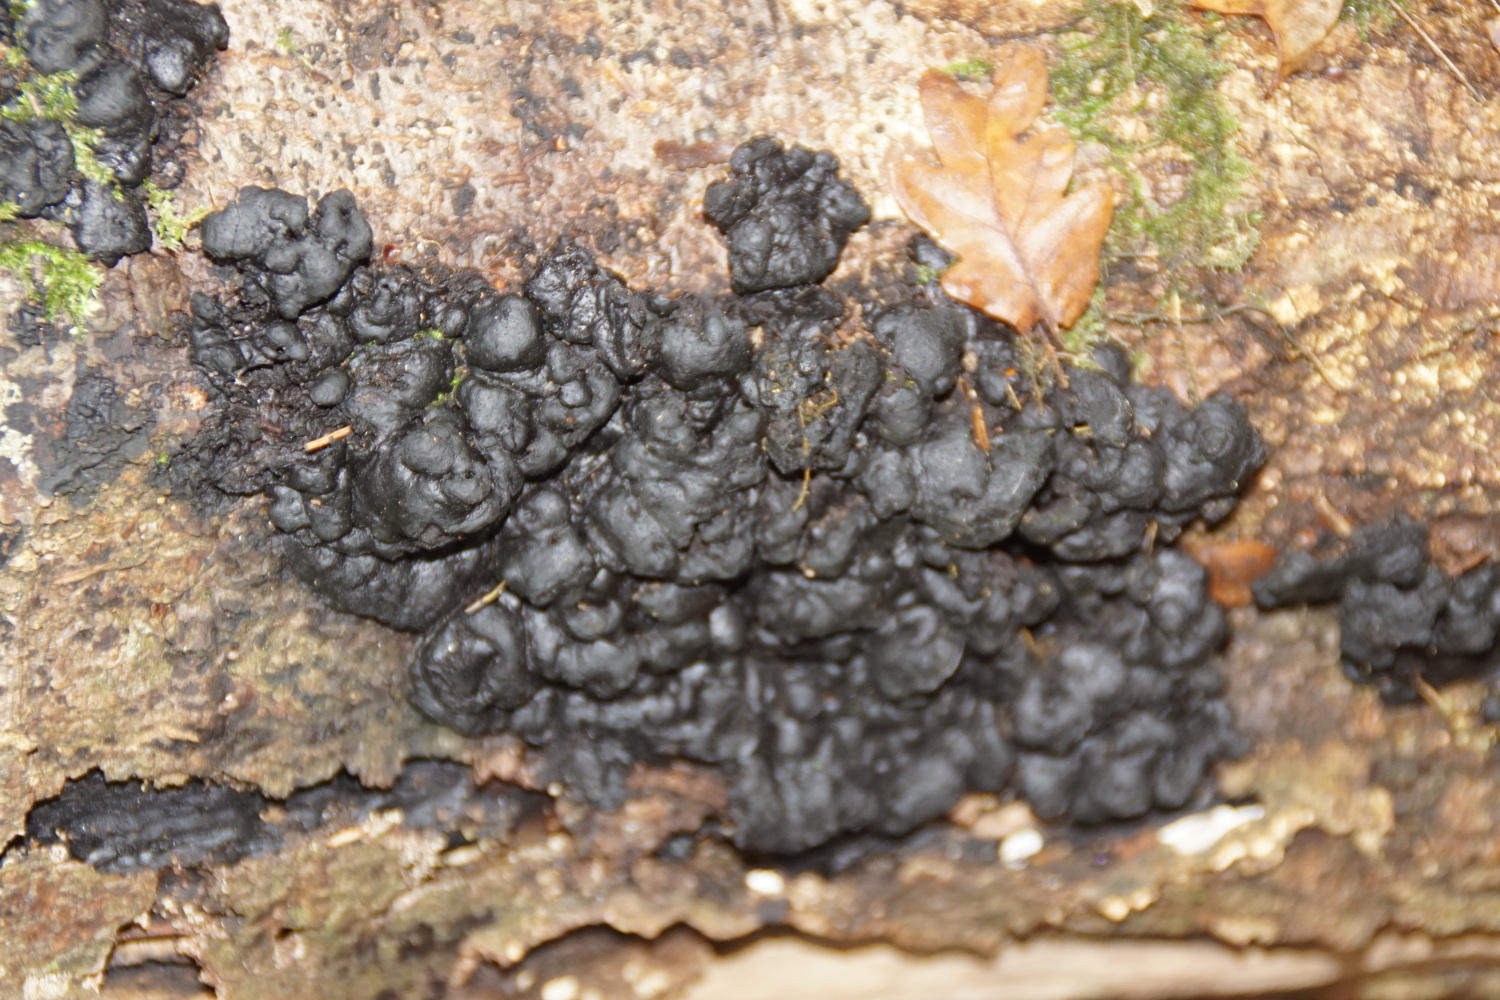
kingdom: Fungi
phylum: Ascomycota
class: Sordariomycetes
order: Xylariales
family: Xylariaceae
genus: Kretzschmaria
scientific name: Kretzschmaria deusta
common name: stor kulsvamp
